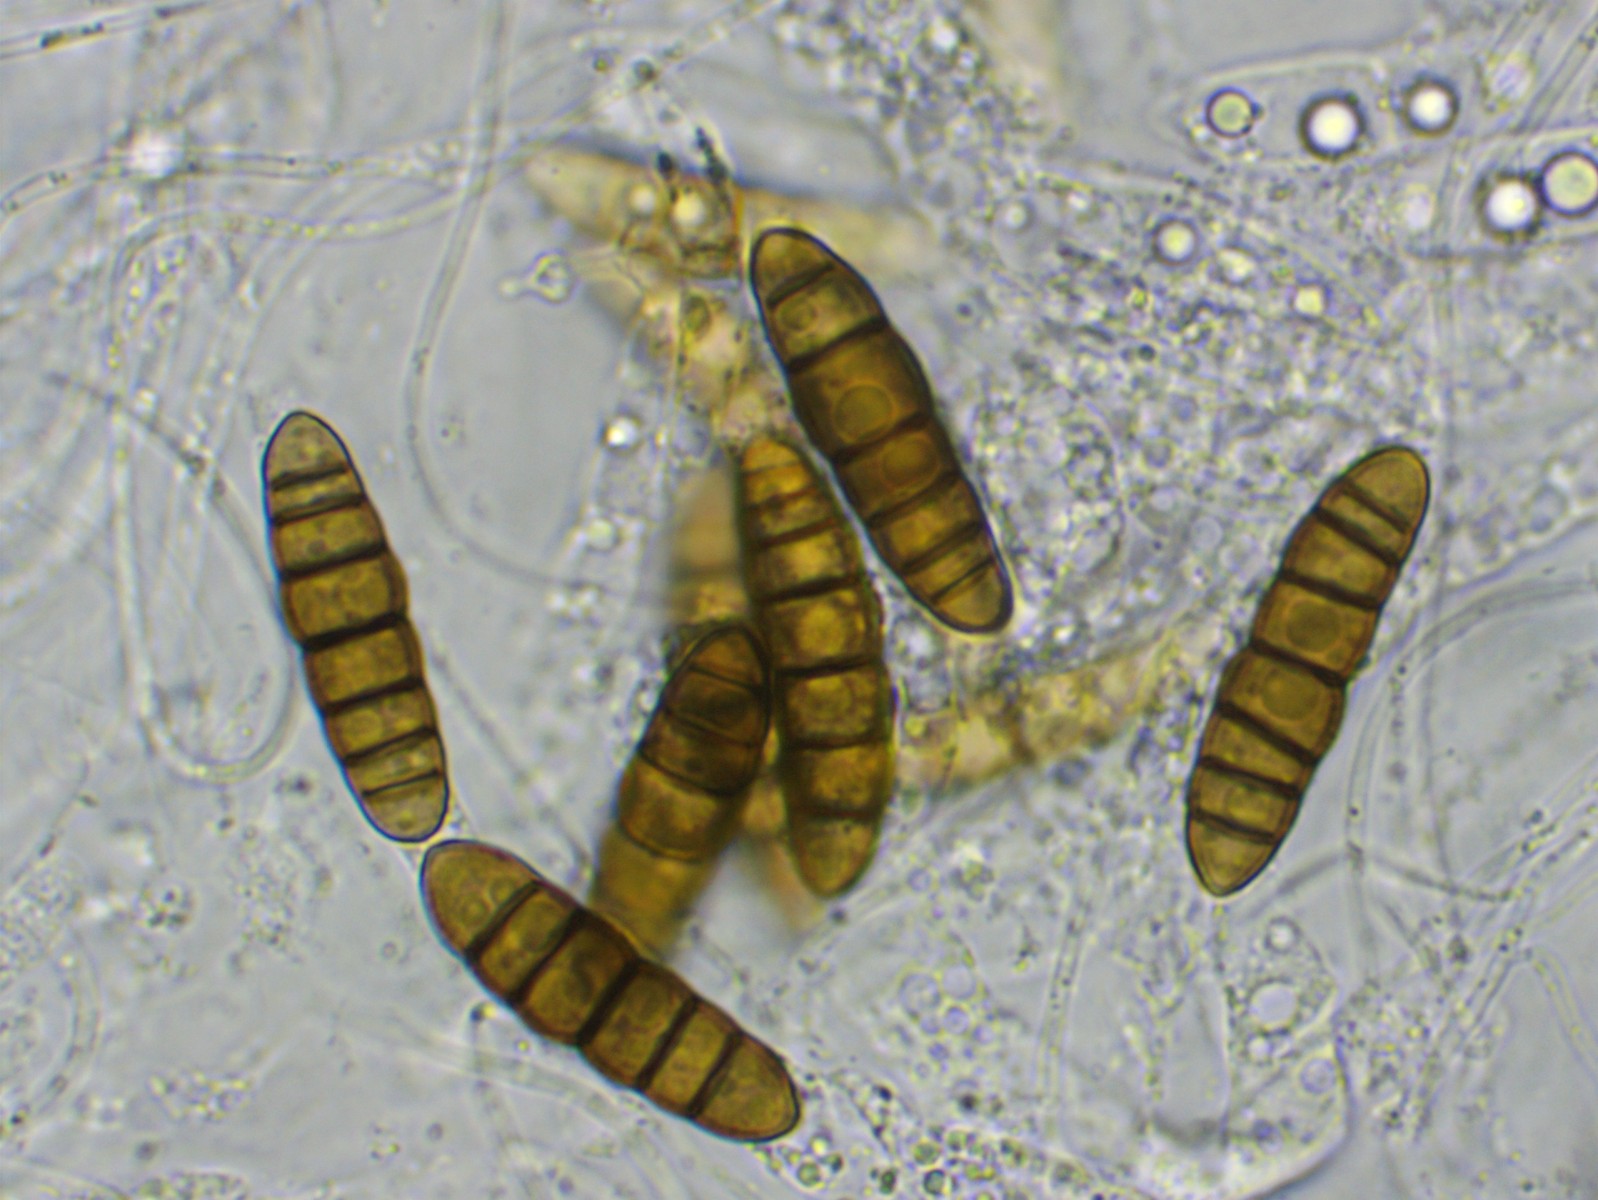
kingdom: Fungi
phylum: Ascomycota
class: Dothideomycetes
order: Pleosporales
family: Thyridariaceae
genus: Thyridaria
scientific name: Thyridaria macrostomoides
